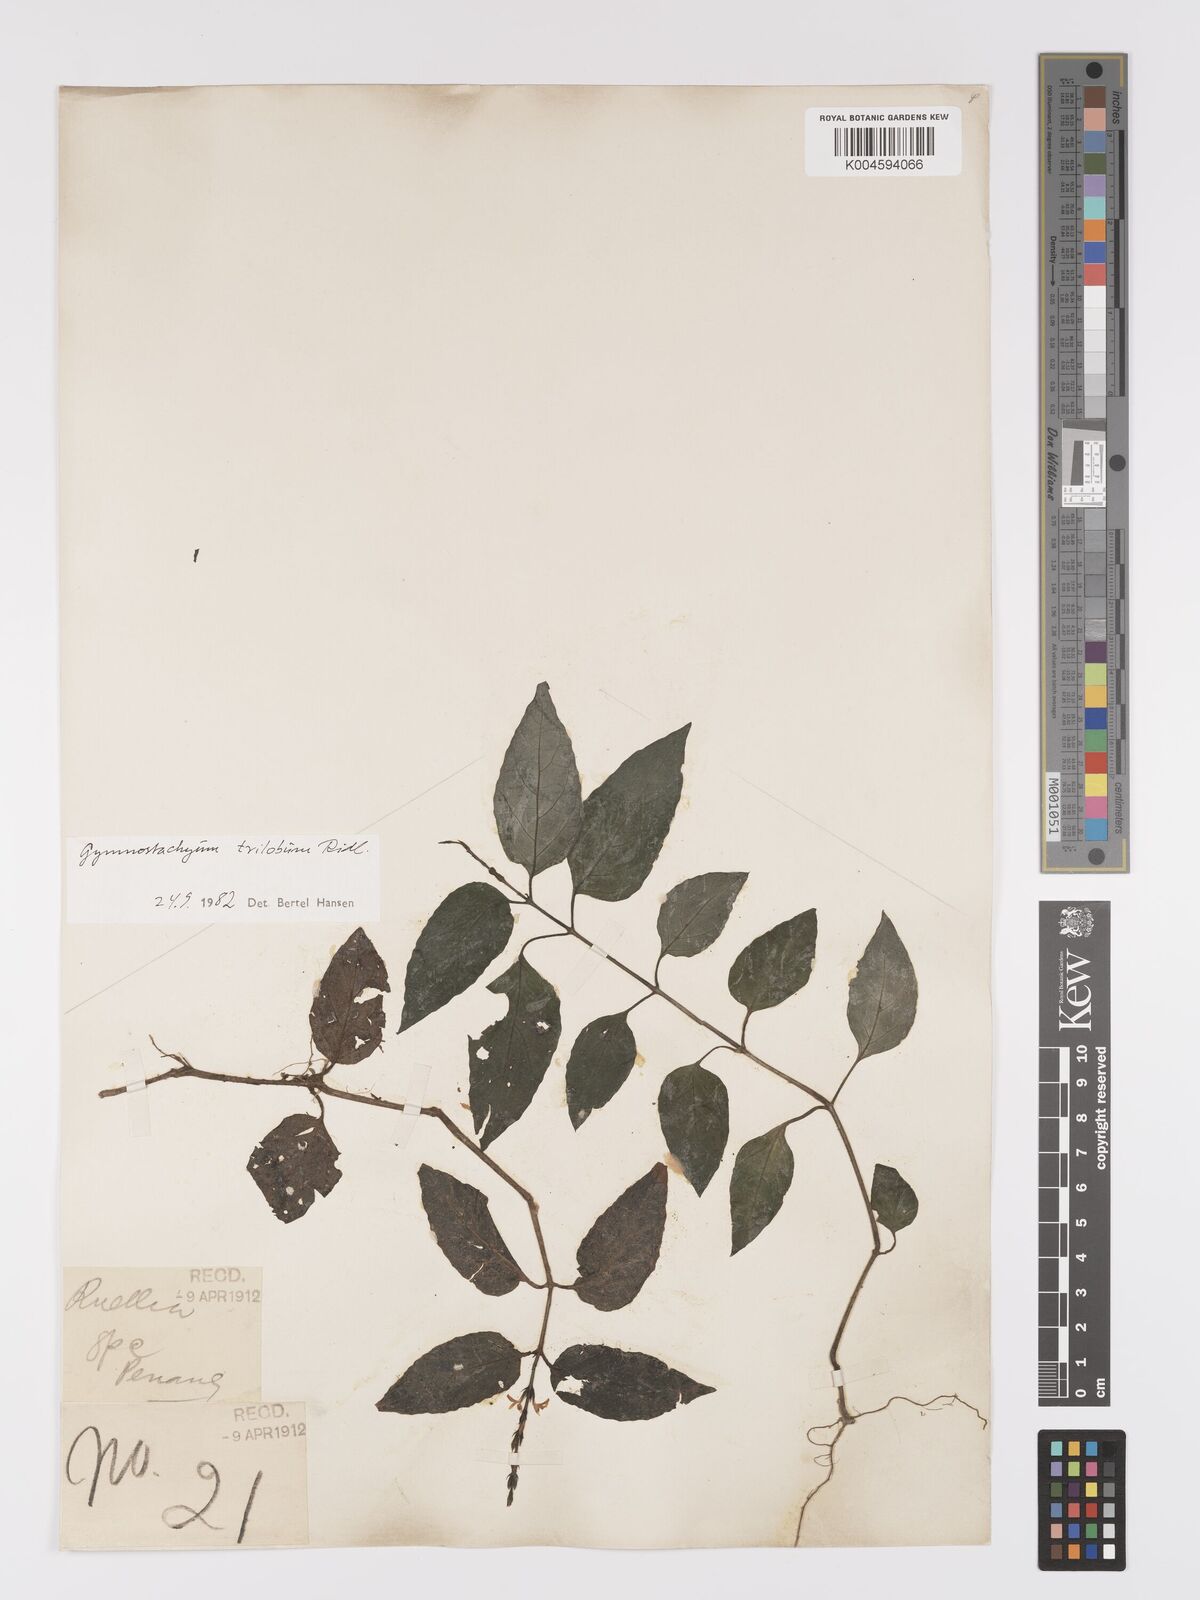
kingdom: Plantae
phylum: Tracheophyta
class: Magnoliopsida
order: Lamiales
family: Acanthaceae
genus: Gymnostachyum
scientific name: Gymnostachyum trilobum
